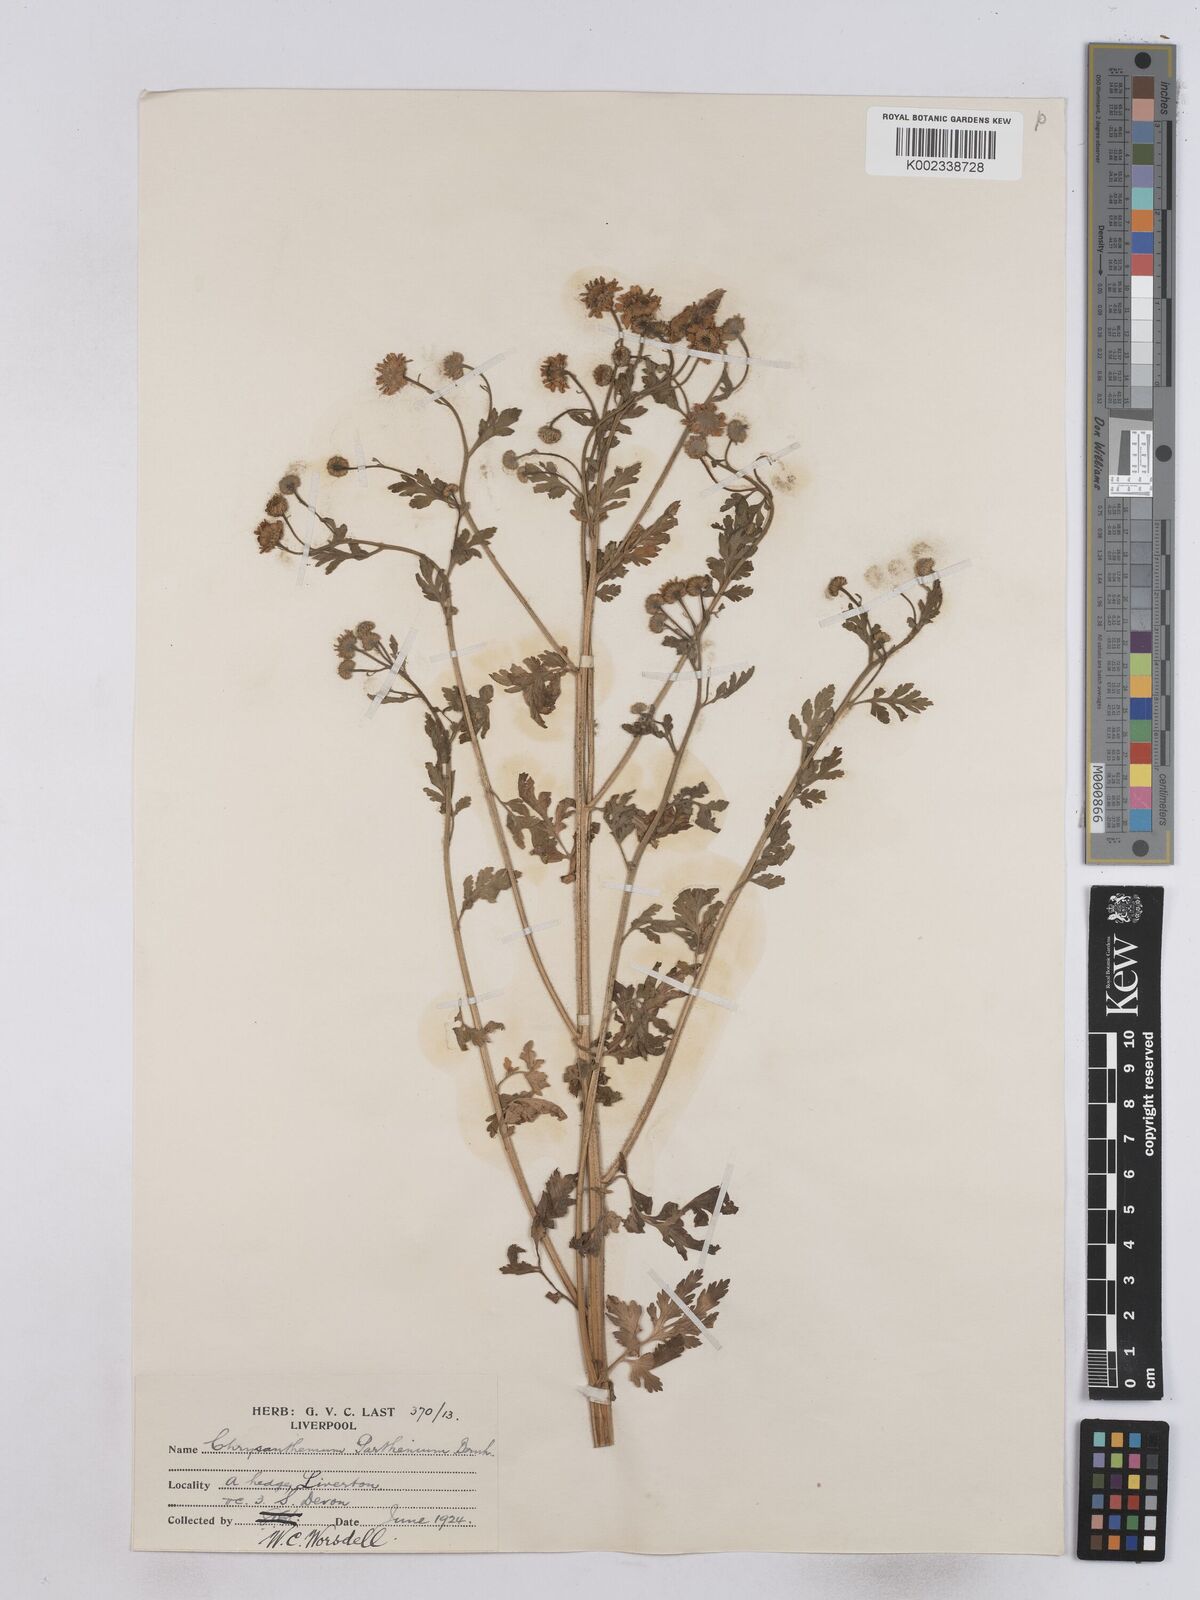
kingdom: Plantae
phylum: Tracheophyta
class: Magnoliopsida
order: Asterales
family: Asteraceae
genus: Tanacetum
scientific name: Tanacetum parthenium
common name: Feverfew
